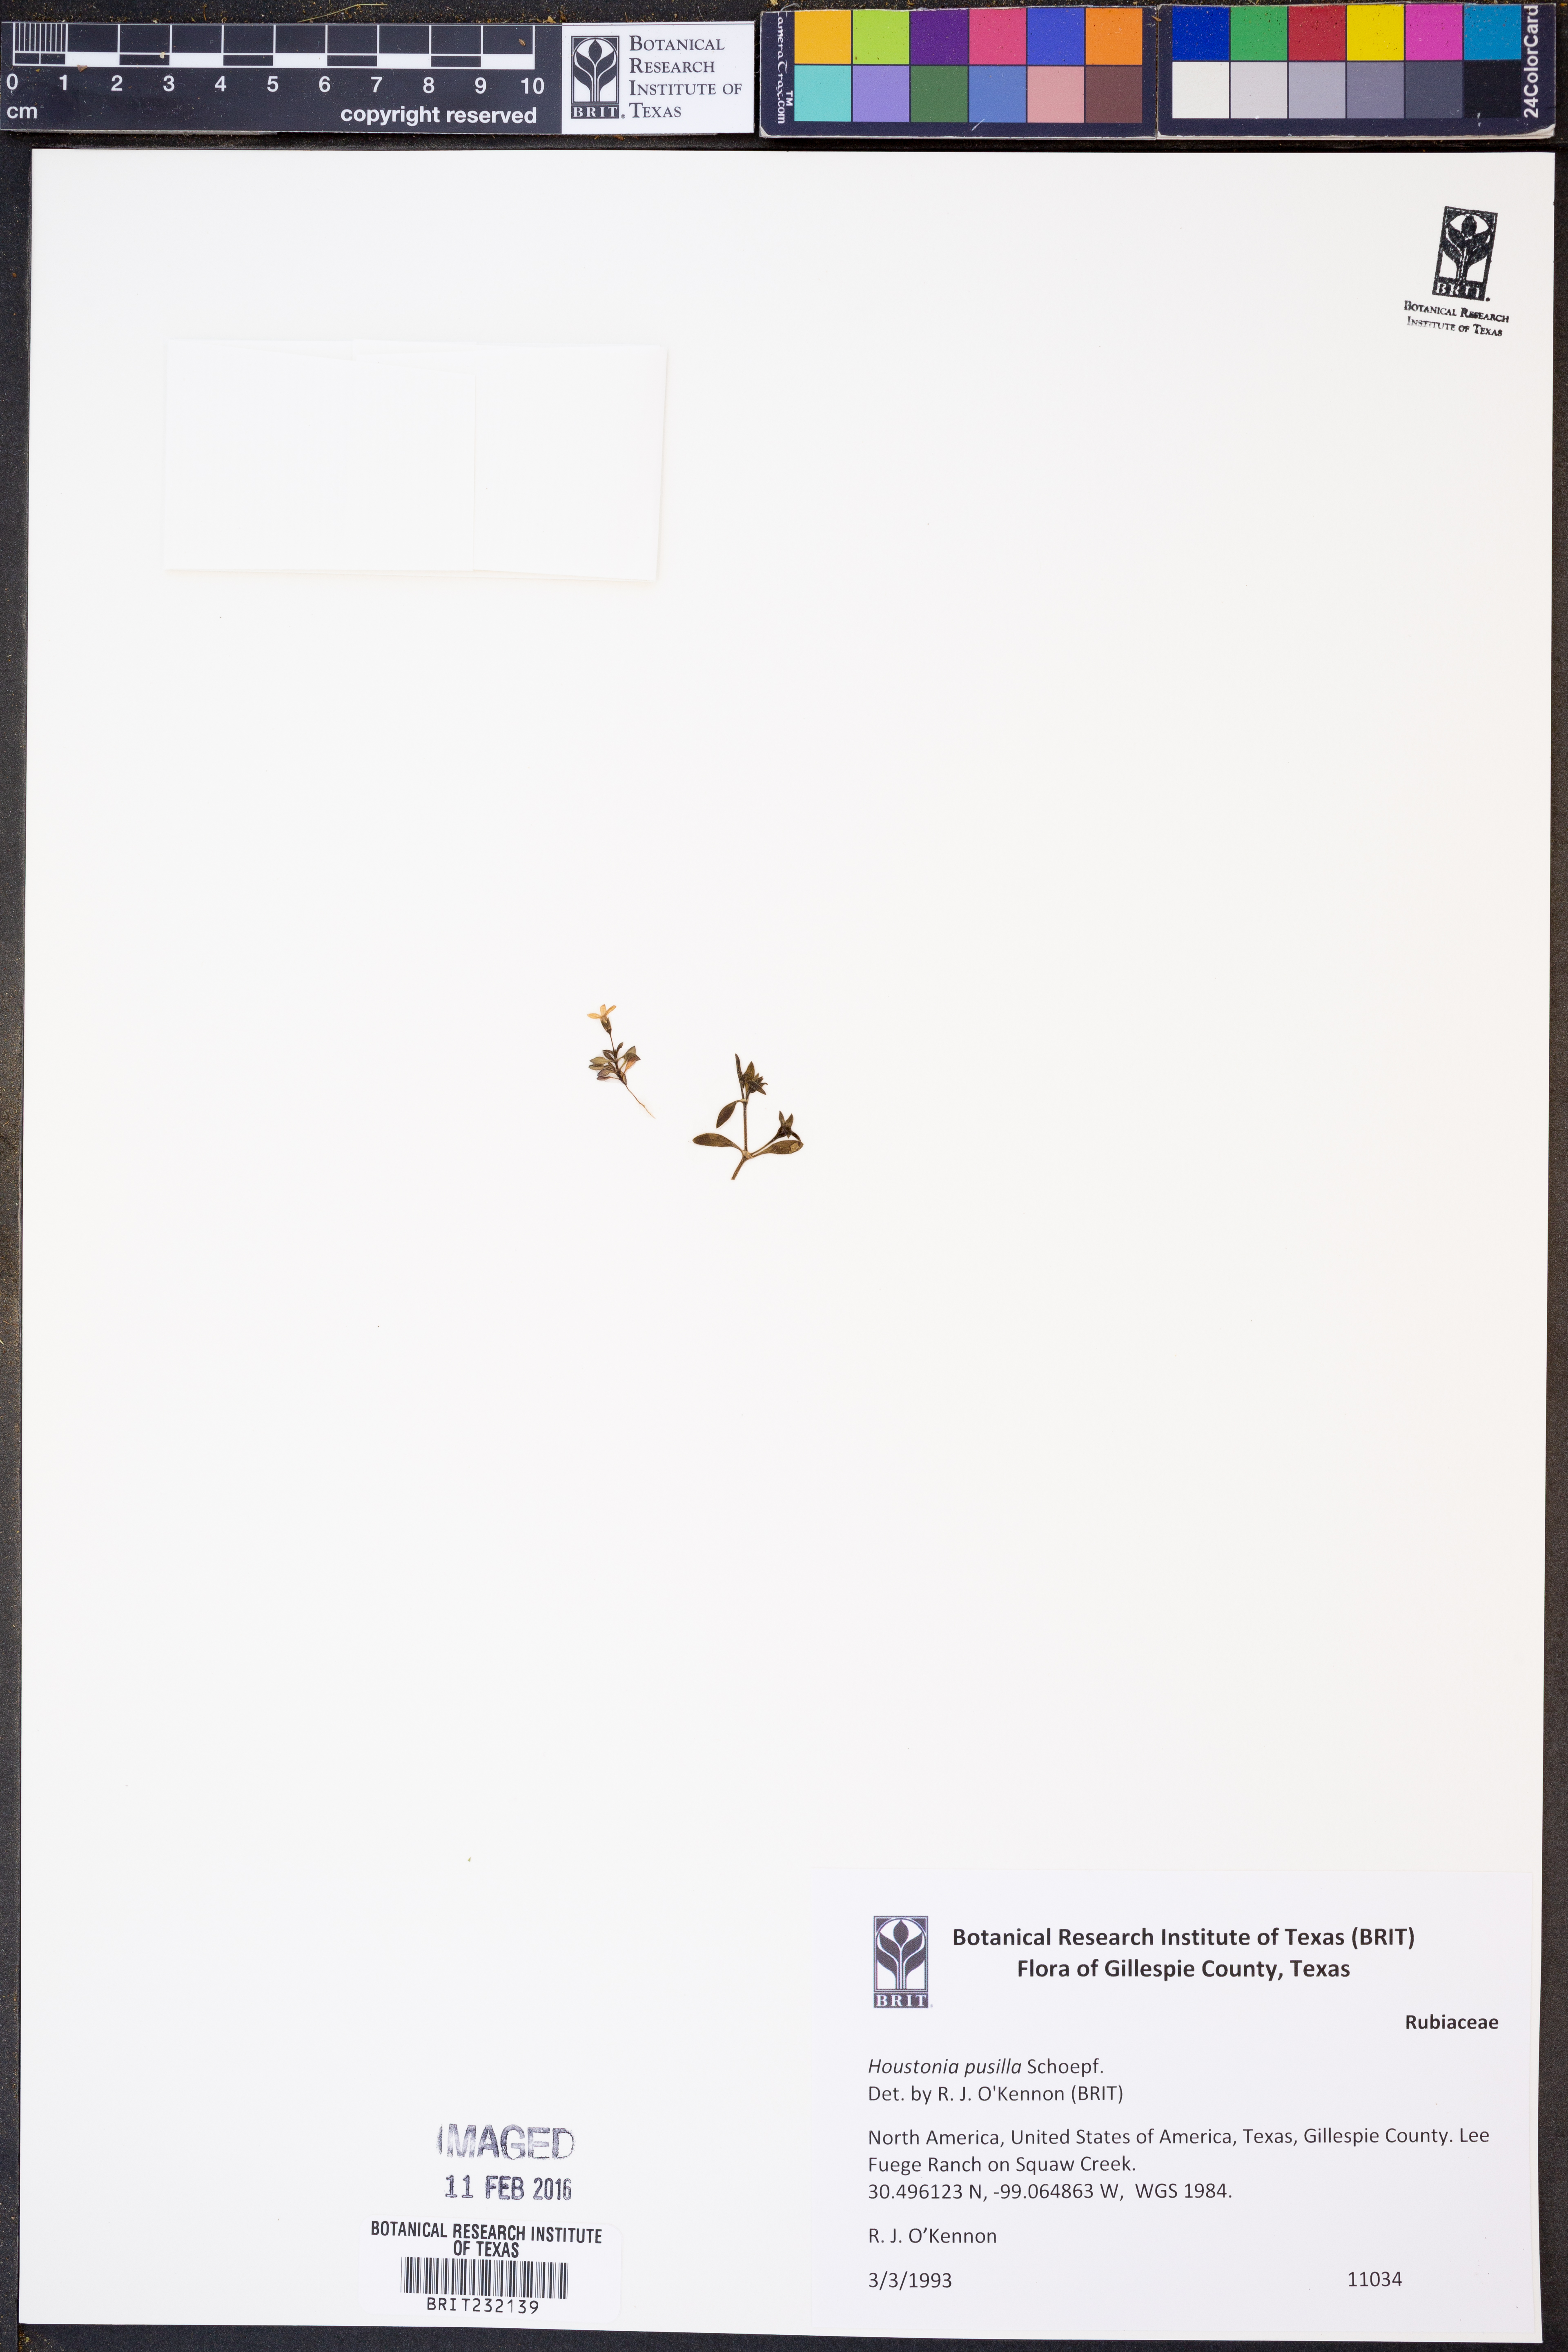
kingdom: Plantae
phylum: Tracheophyta
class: Magnoliopsida
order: Gentianales
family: Rubiaceae
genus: Houstonia
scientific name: Houstonia pusilla
